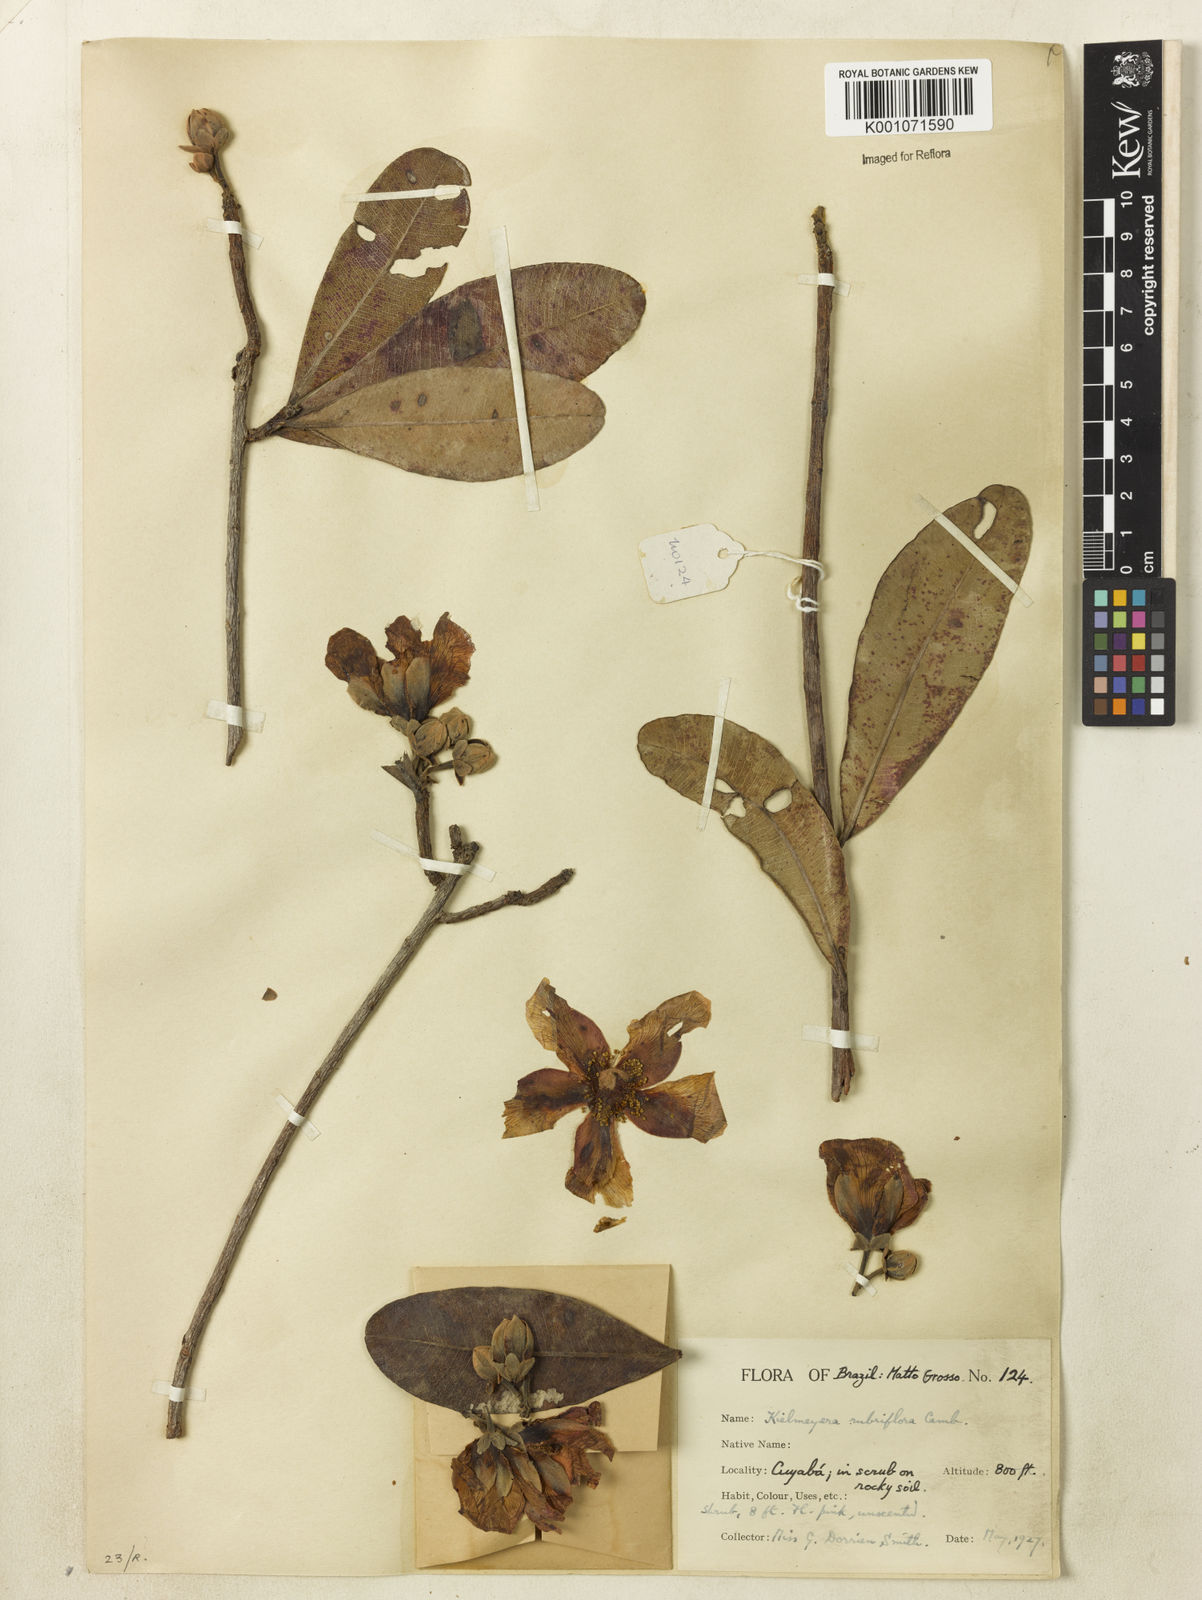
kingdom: Plantae
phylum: Tracheophyta
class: Magnoliopsida
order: Malpighiales
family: Calophyllaceae
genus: Kielmeyera
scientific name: Kielmeyera rubriflora
